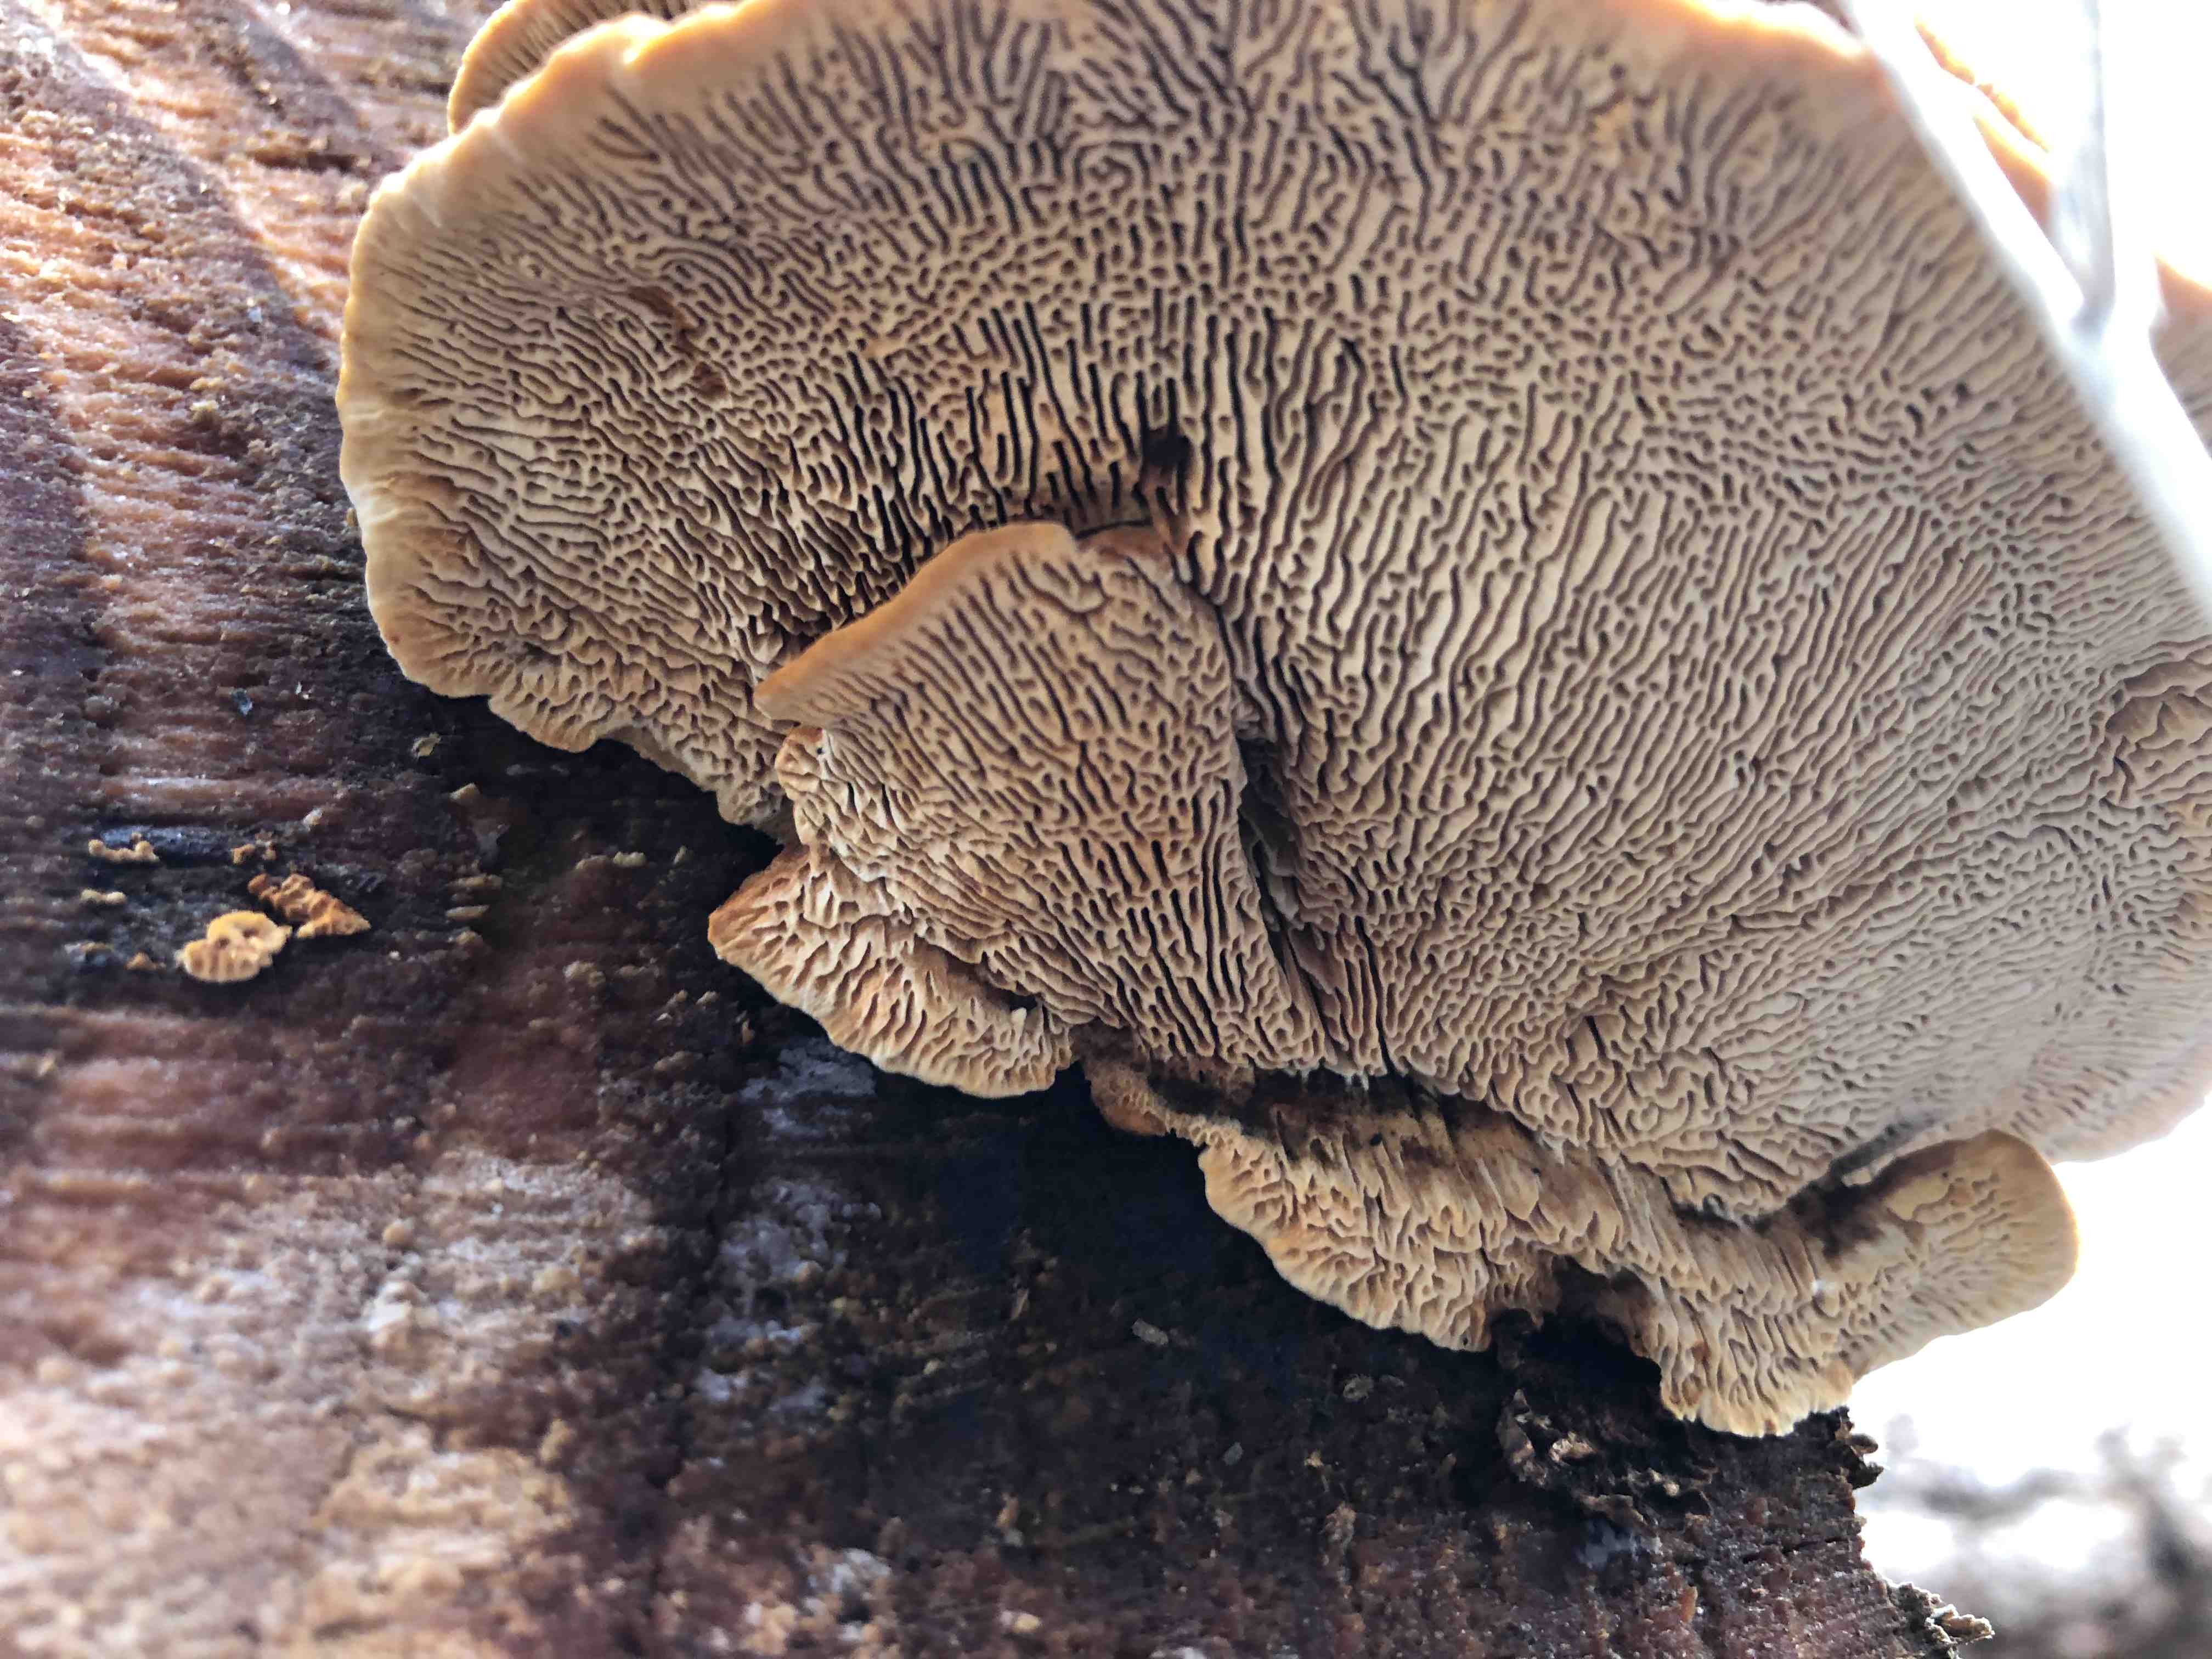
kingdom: Fungi
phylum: Basidiomycota
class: Agaricomycetes
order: Gloeophyllales
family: Gloeophyllaceae
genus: Gloeophyllum
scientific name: Gloeophyllum sepiarium
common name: fyrre-korkhat
